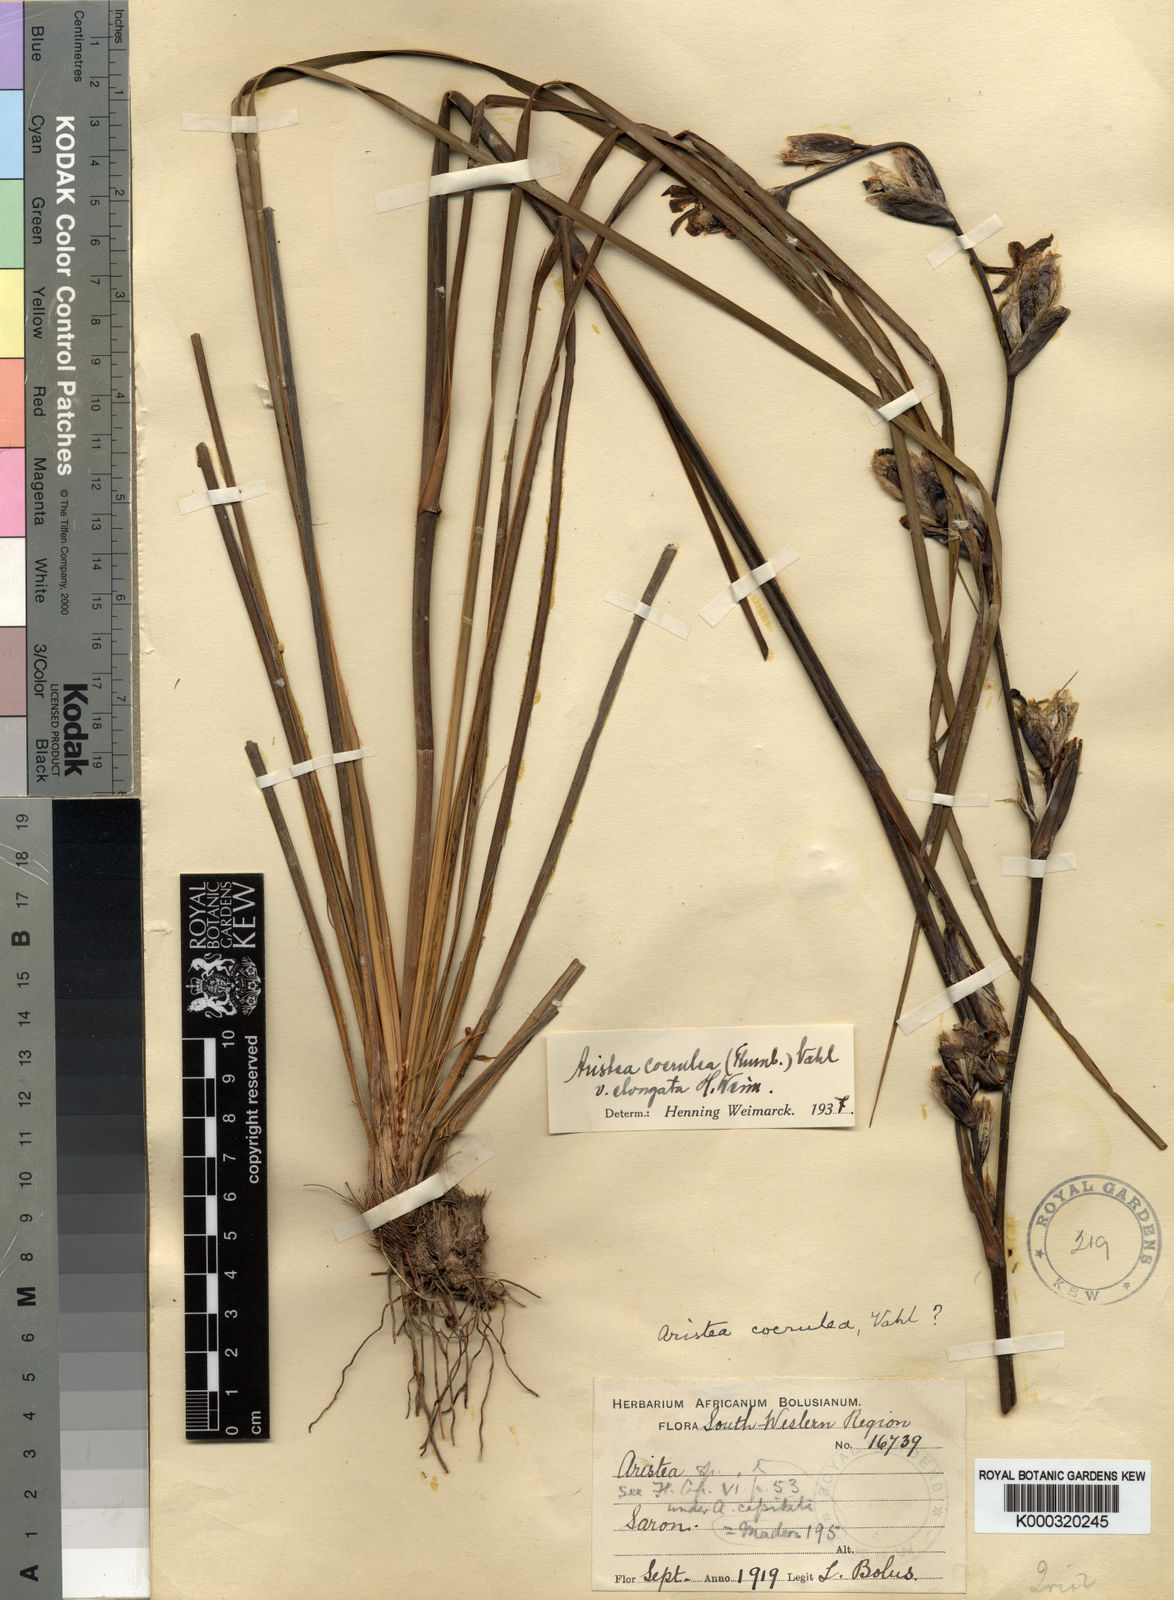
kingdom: Plantae
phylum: Tracheophyta
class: Liliopsida
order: Asparagales
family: Iridaceae
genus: Aristea
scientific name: Aristea monticola
